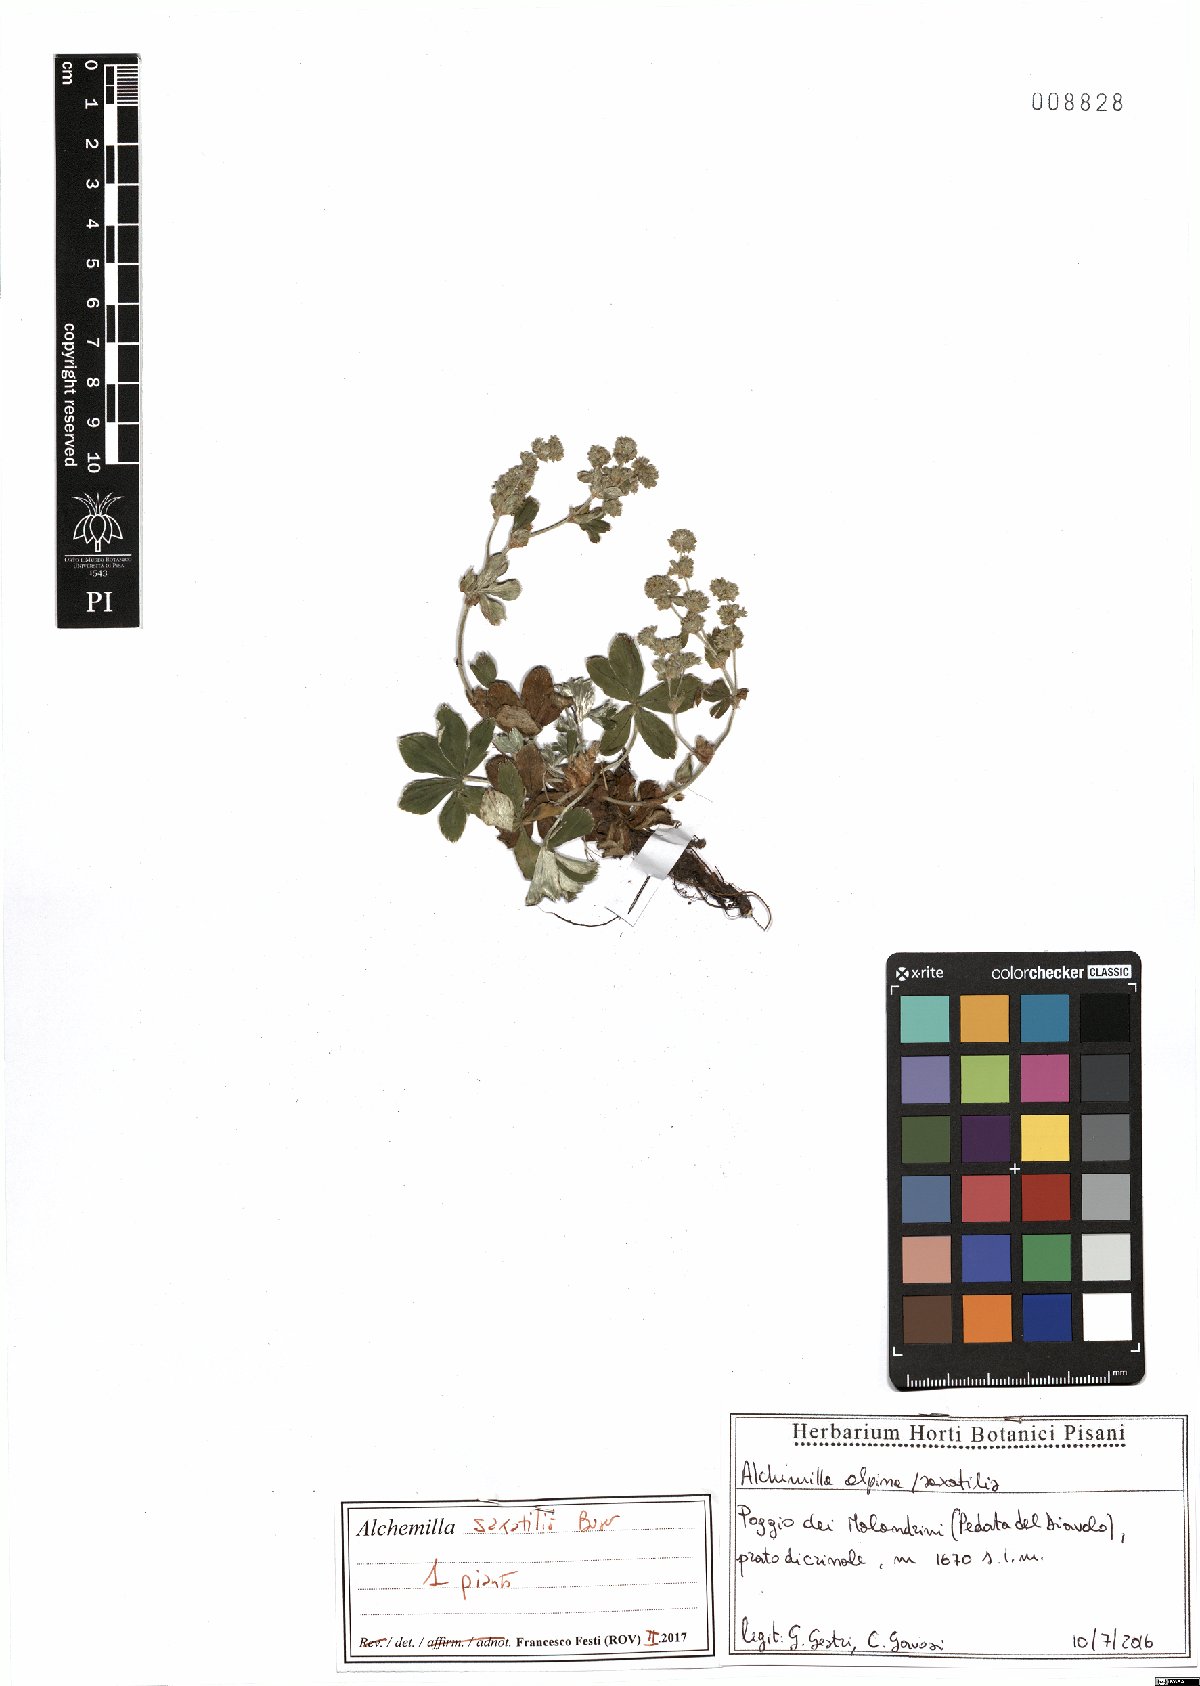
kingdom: Plantae
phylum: Tracheophyta
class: Magnoliopsida
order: Rosales
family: Rosaceae
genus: Alchemilla
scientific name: Alchemilla saxatilis
